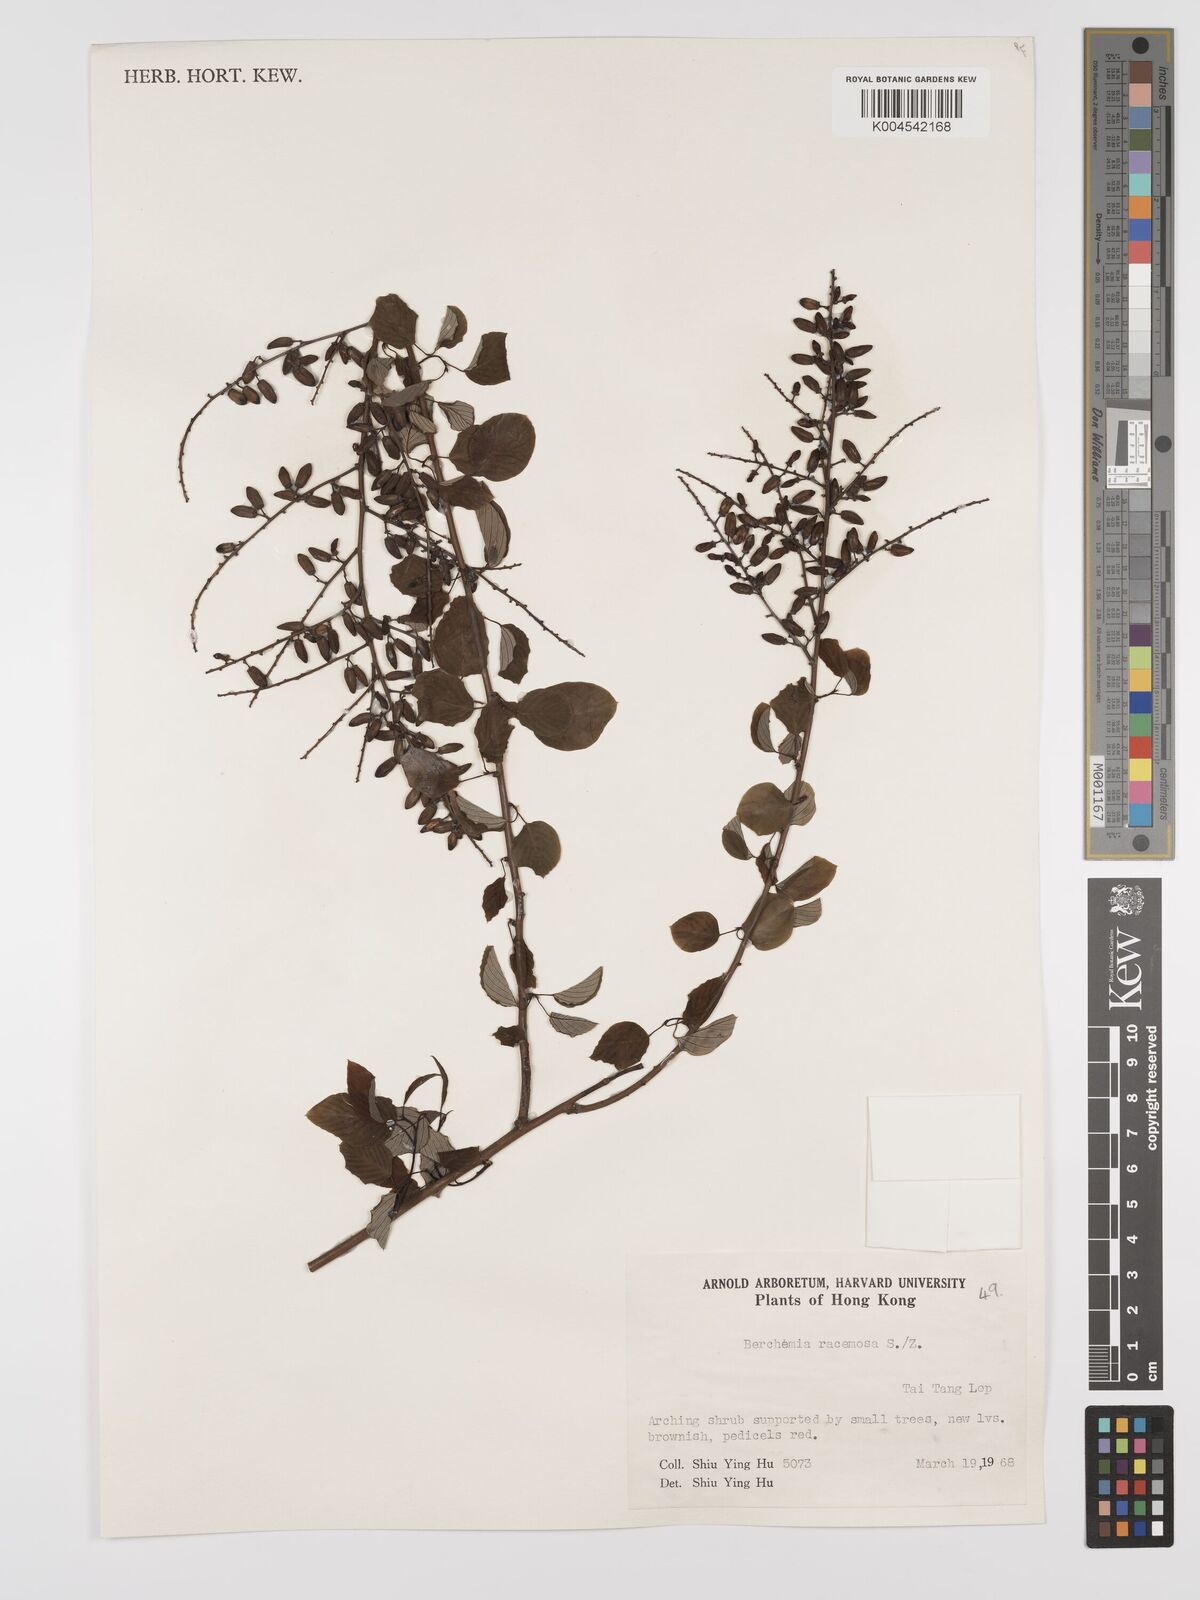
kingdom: Plantae
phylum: Tracheophyta
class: Magnoliopsida
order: Rosales
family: Rhamnaceae
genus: Berchemia
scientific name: Berchemia floribunda
